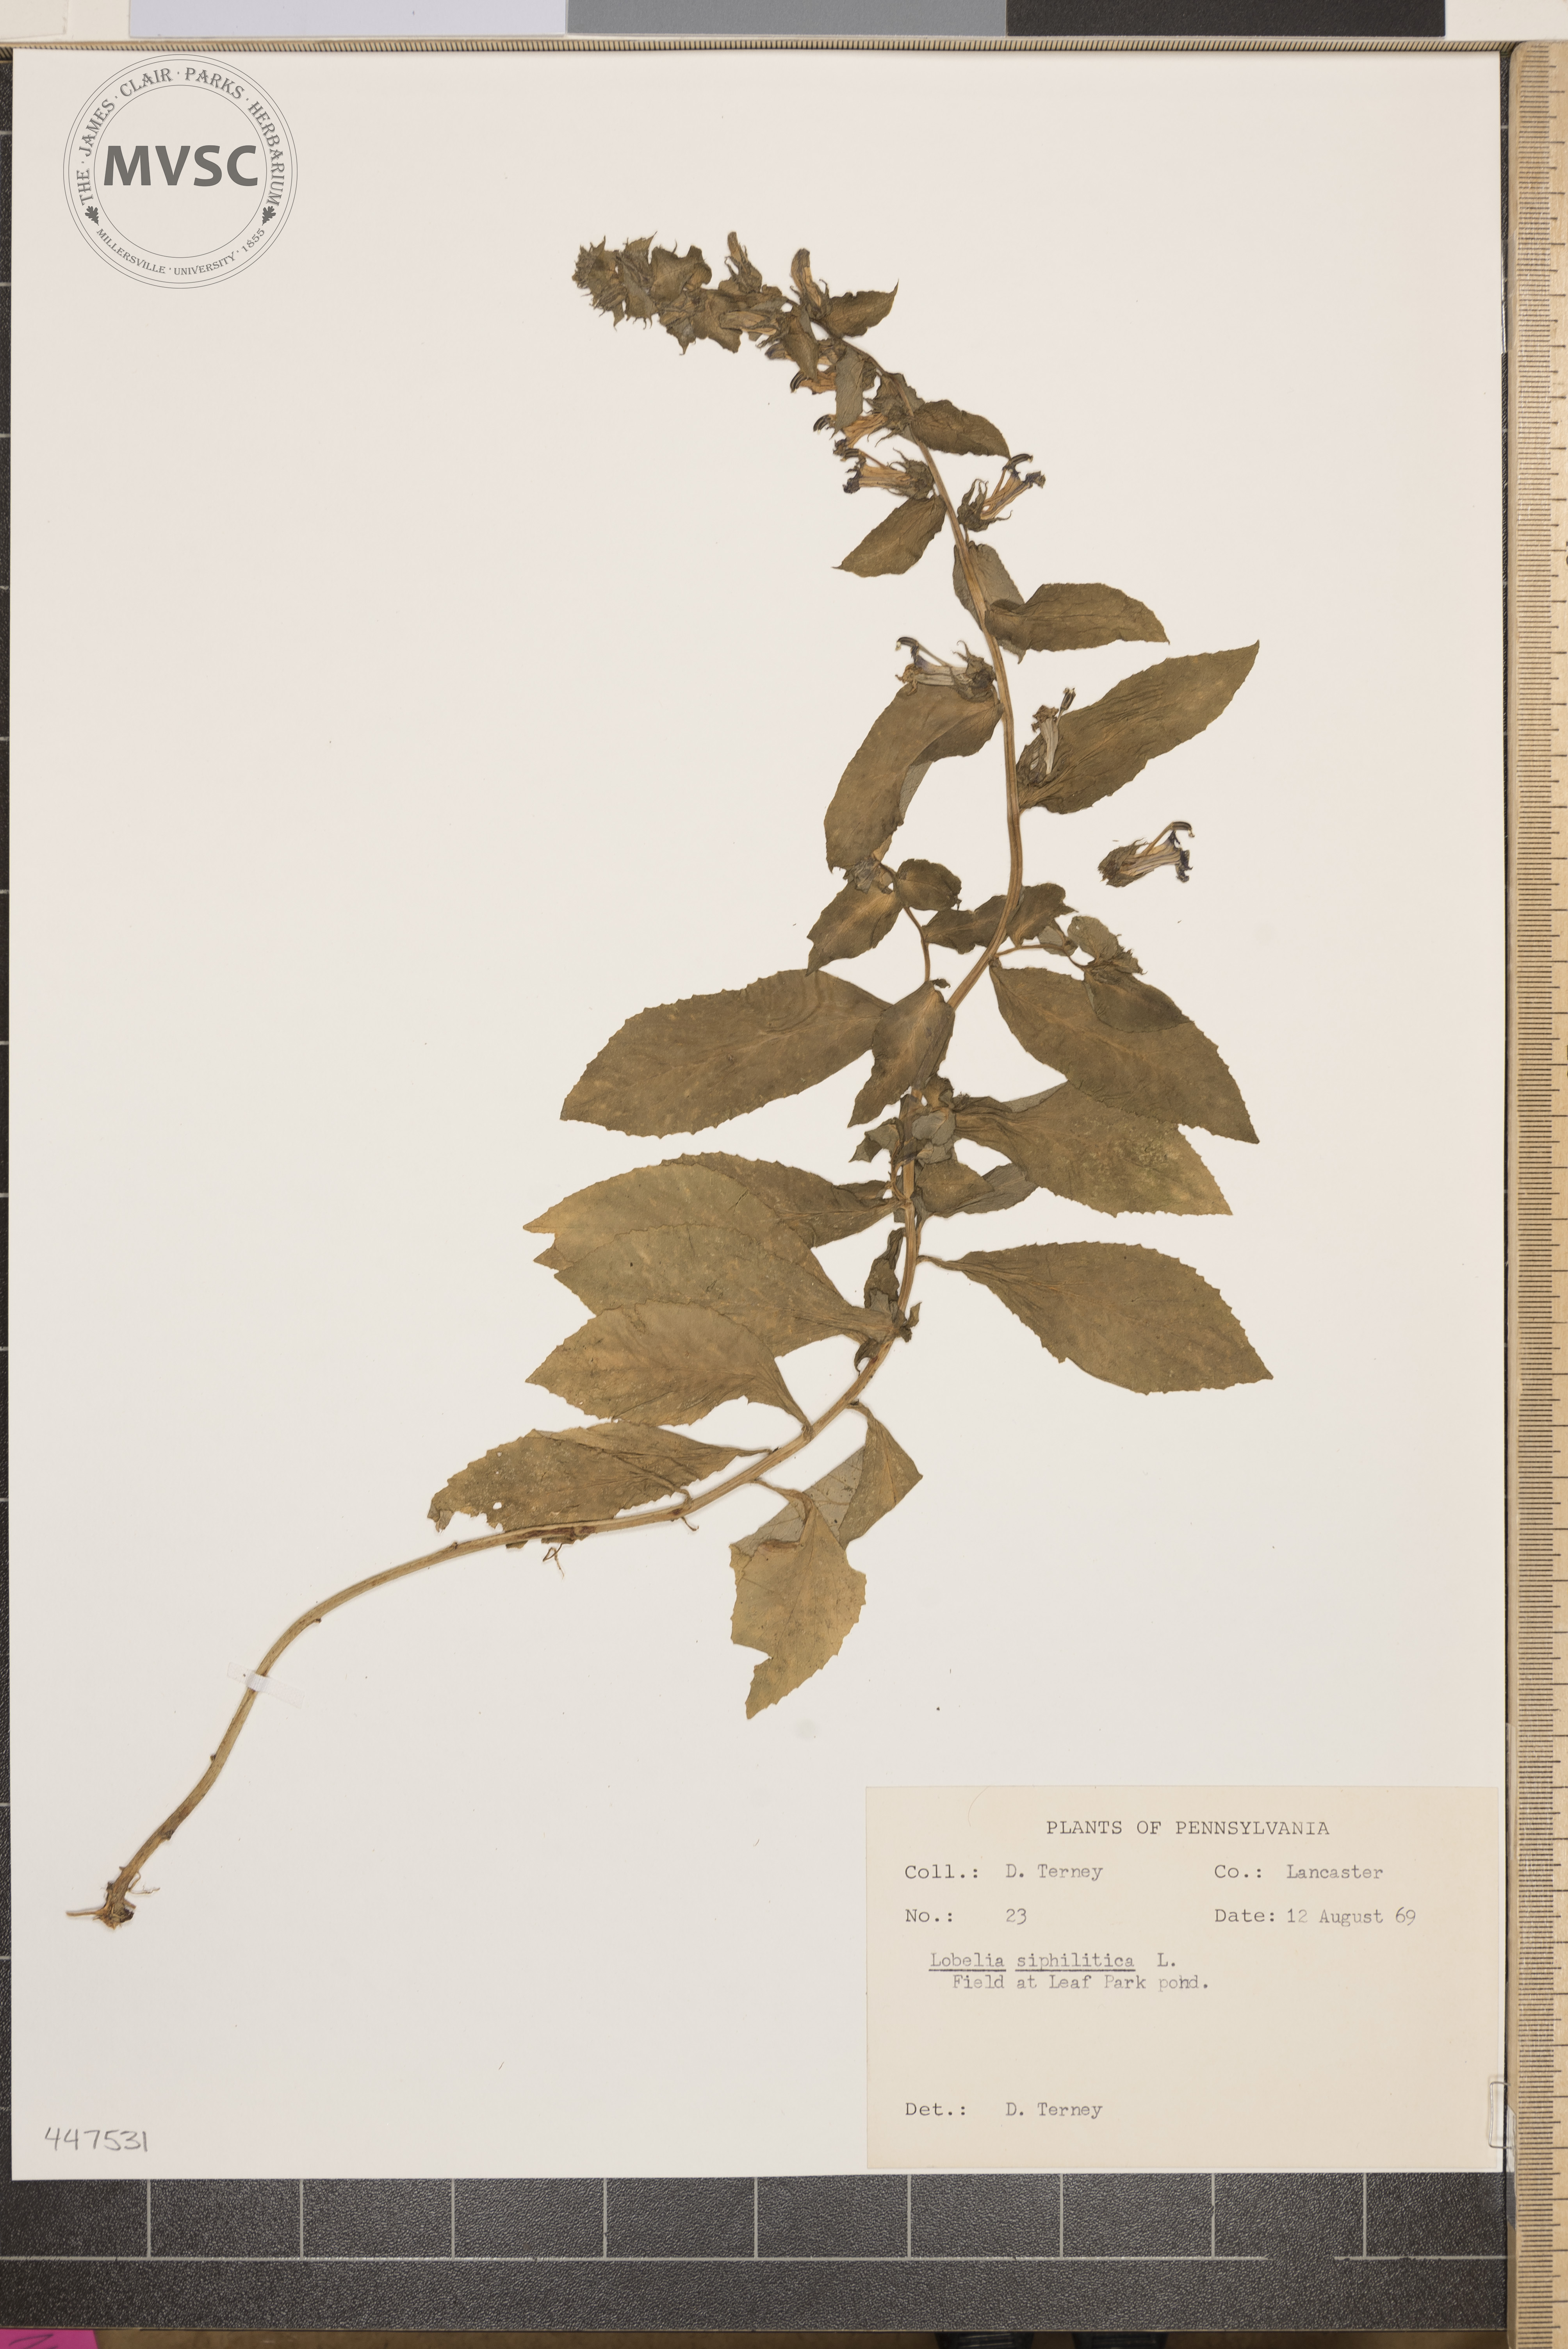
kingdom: Plantae
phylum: Tracheophyta
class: Magnoliopsida
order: Asterales
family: Campanulaceae
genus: Lobelia
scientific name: Lobelia siphilitica
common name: Great lobelia
